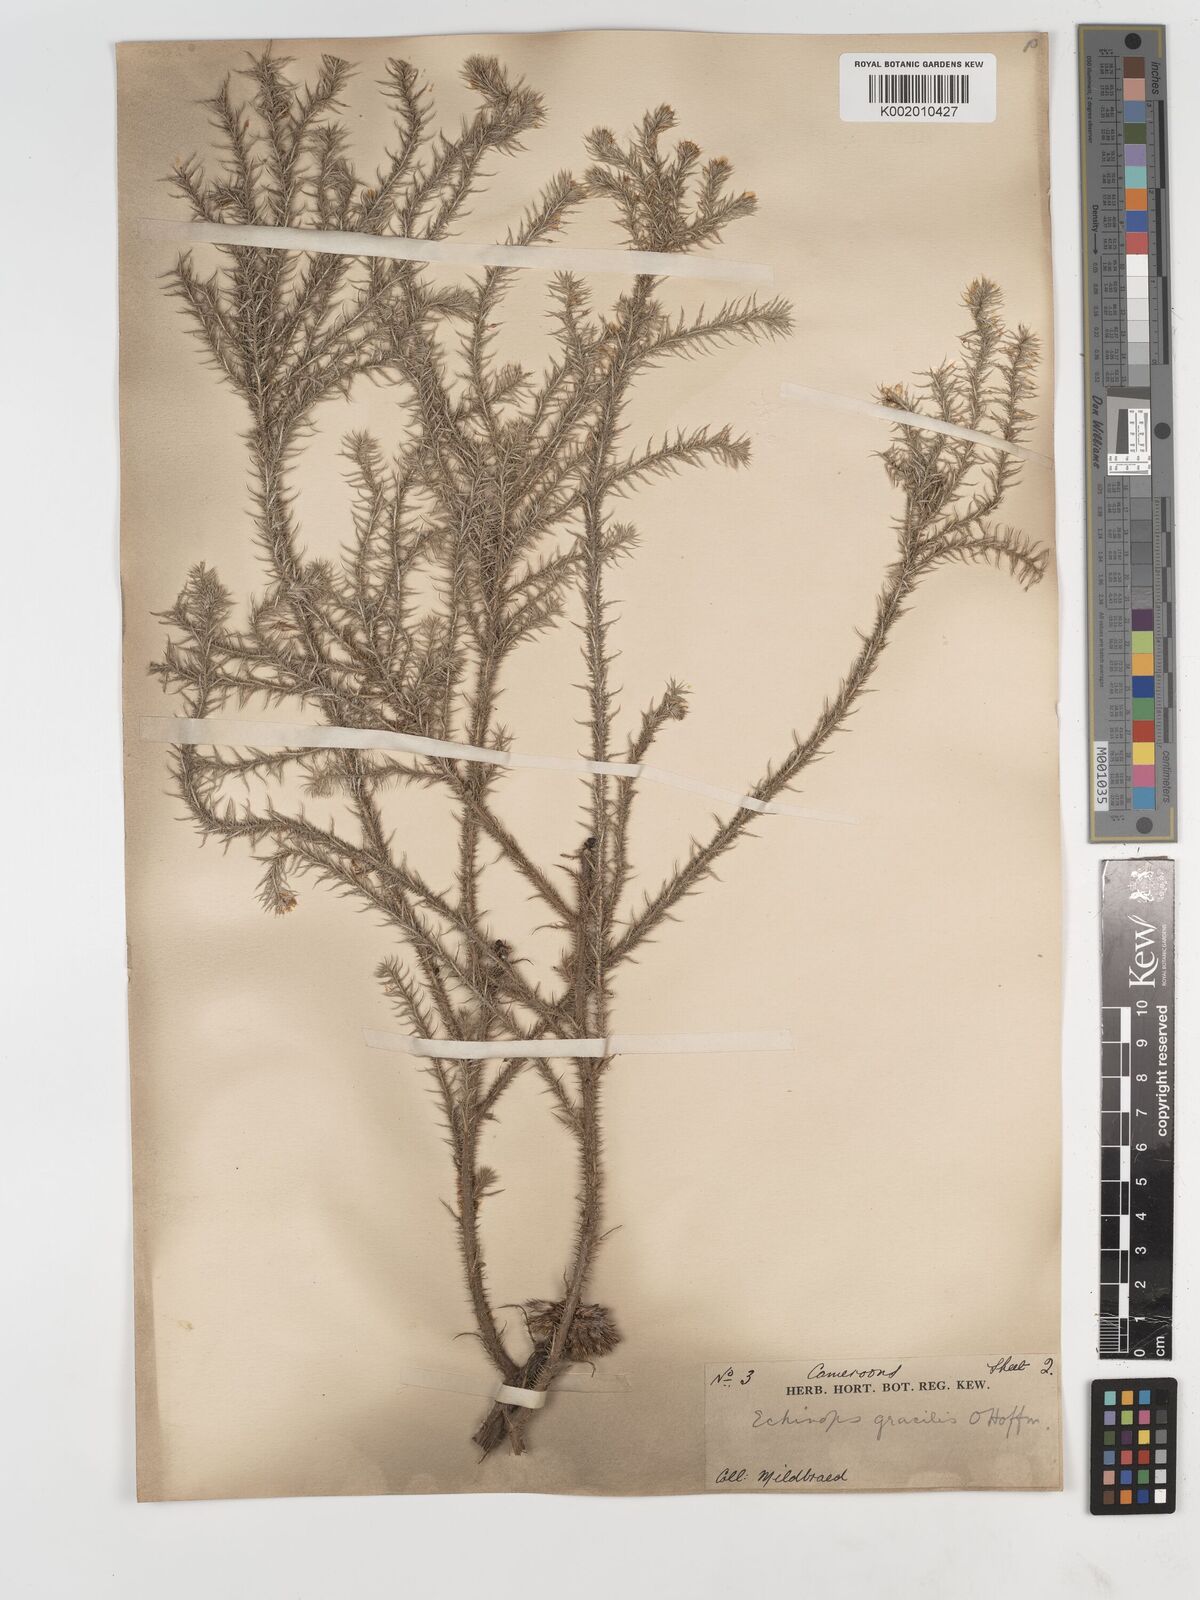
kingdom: Plantae
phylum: Tracheophyta
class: Magnoliopsida
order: Asterales
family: Asteraceae
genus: Echinops
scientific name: Echinops gracilis
